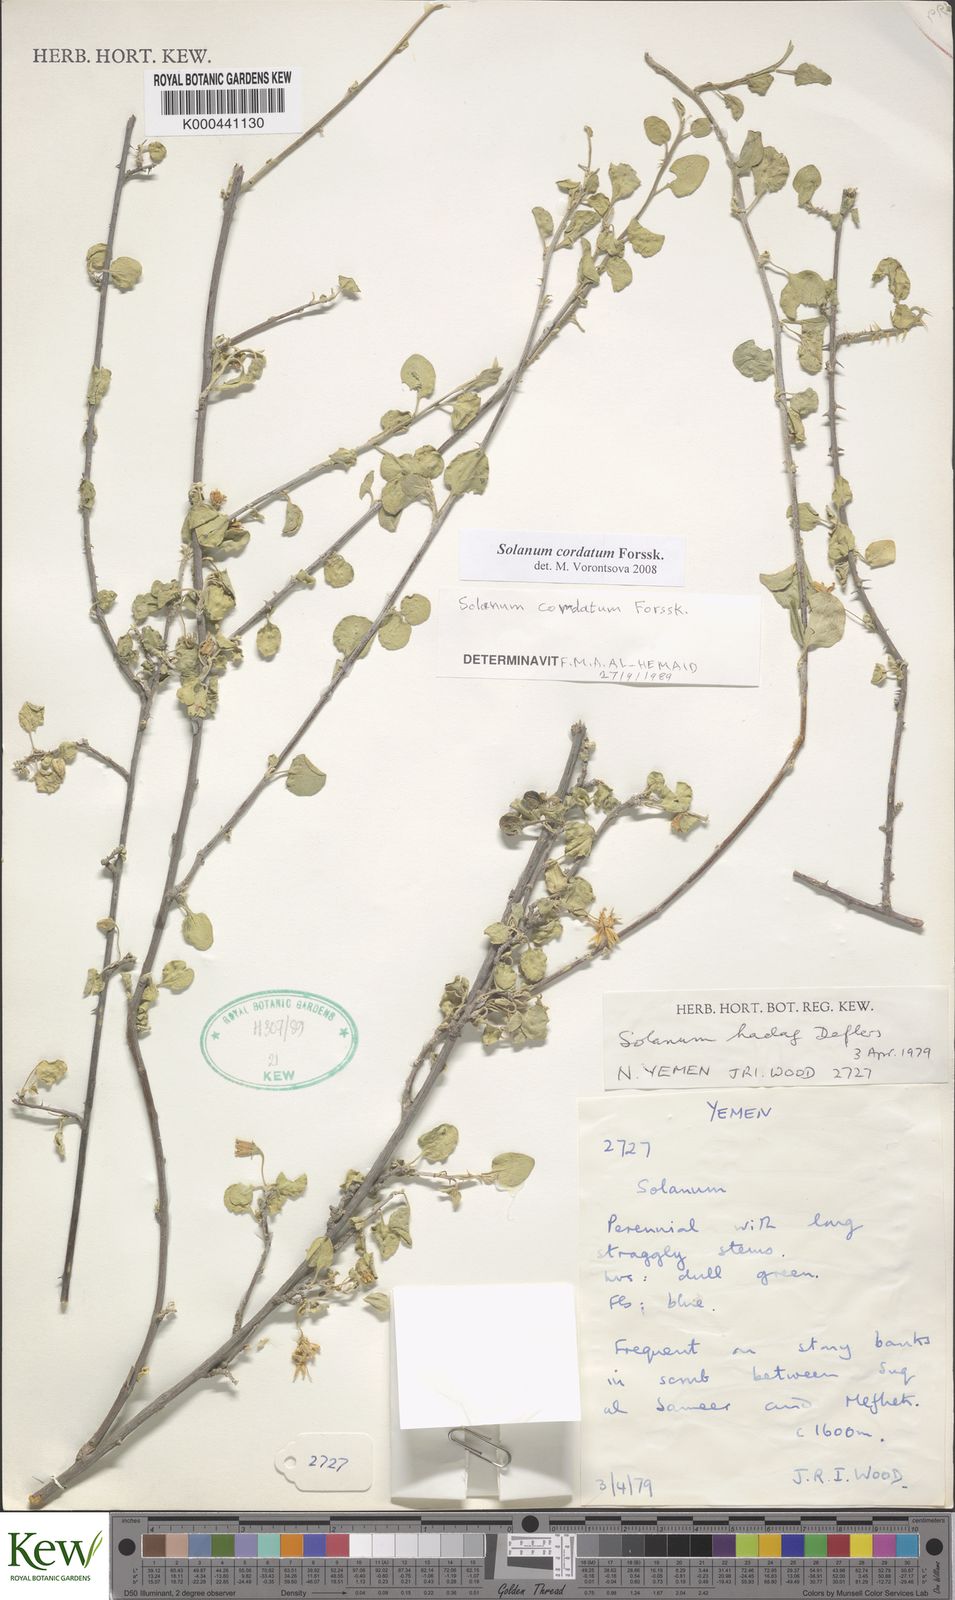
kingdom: Plantae
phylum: Tracheophyta
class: Magnoliopsida
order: Solanales
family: Solanaceae
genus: Solanum
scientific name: Solanum cordatum
